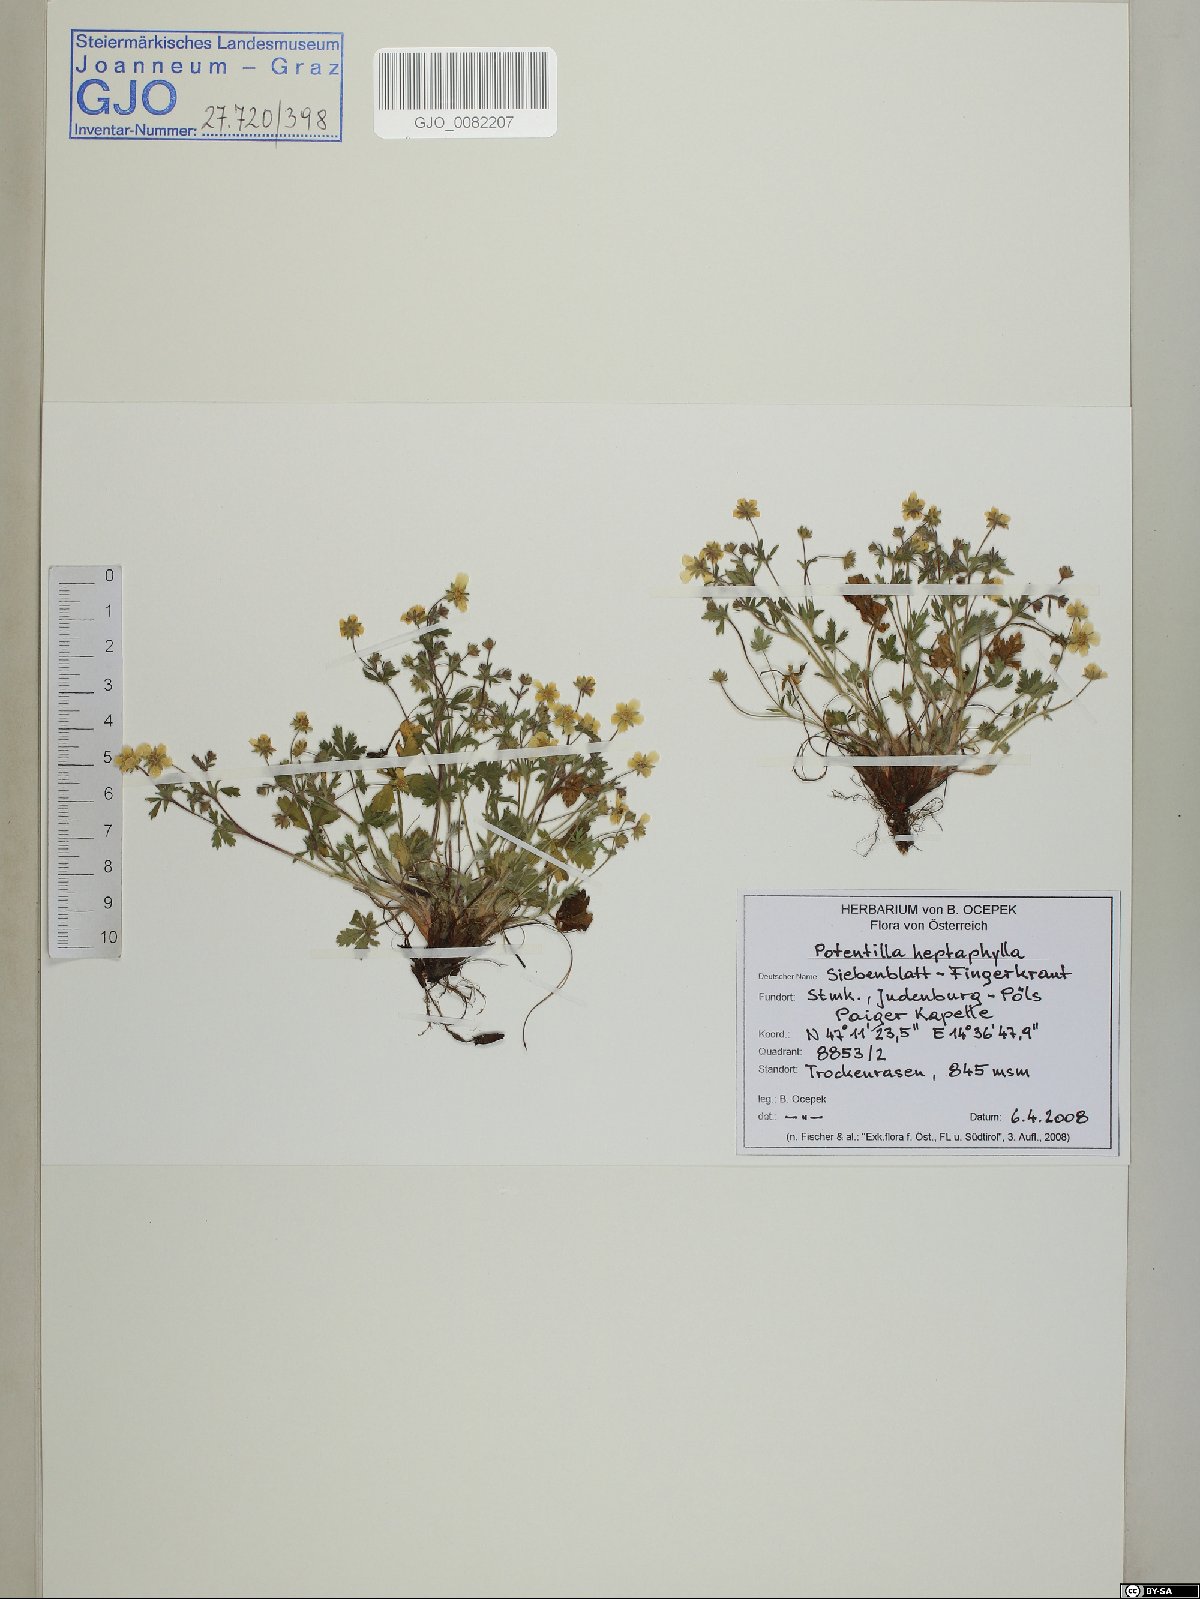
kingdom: Plantae
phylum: Tracheophyta
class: Magnoliopsida
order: Rosales
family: Rosaceae
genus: Potentilla
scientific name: Potentilla heptaphylla
